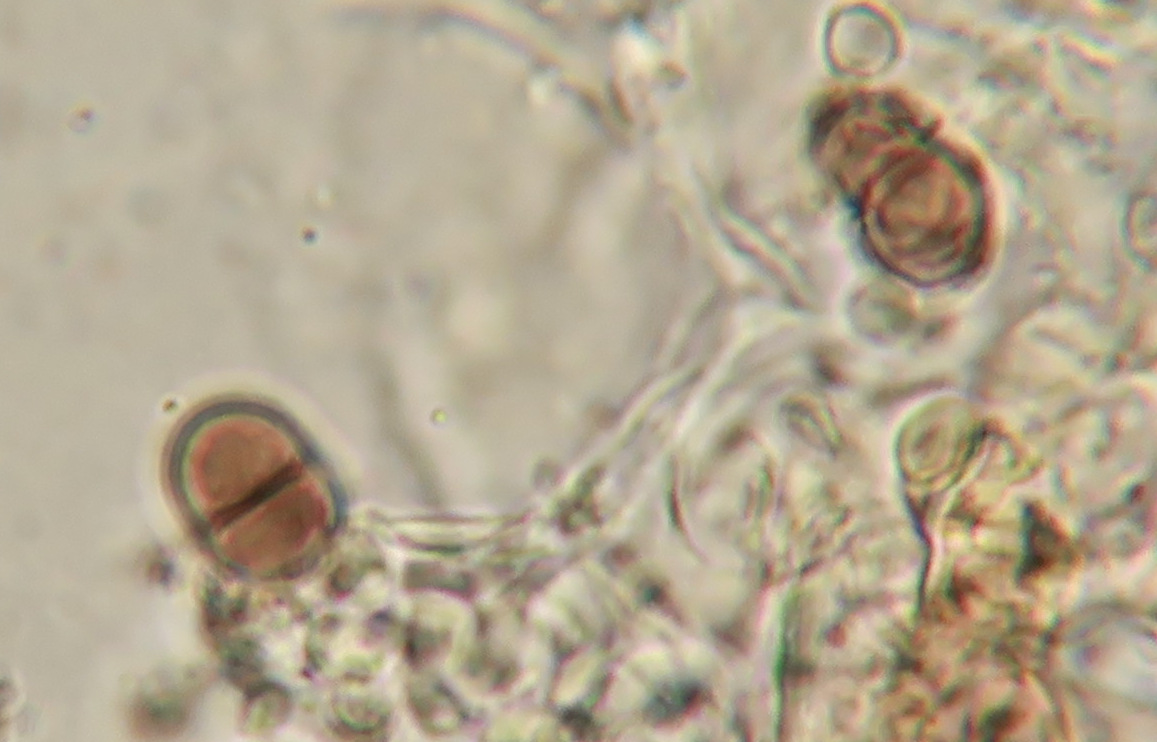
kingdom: Fungi
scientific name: Fungi
